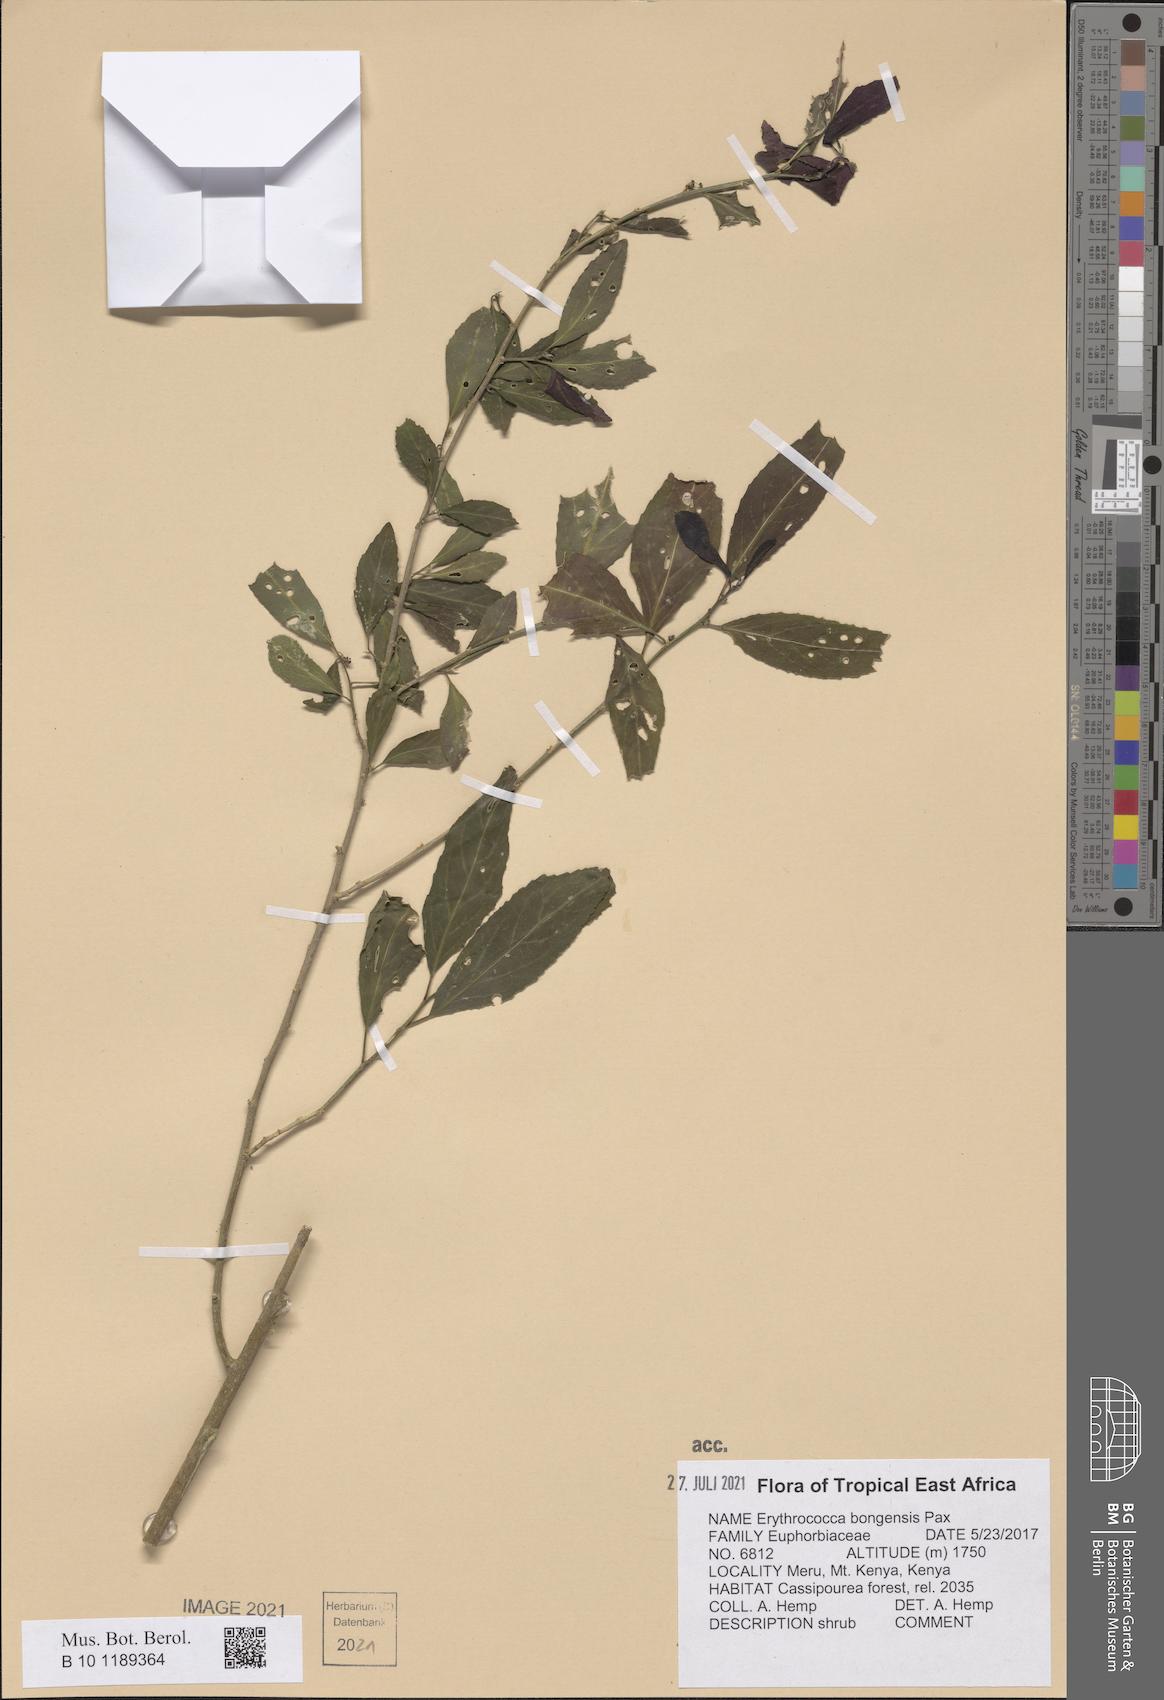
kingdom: Plantae
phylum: Tracheophyta
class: Magnoliopsida
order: Malpighiales
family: Euphorbiaceae
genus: Erythrococca
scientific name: Erythrococca bongensis
